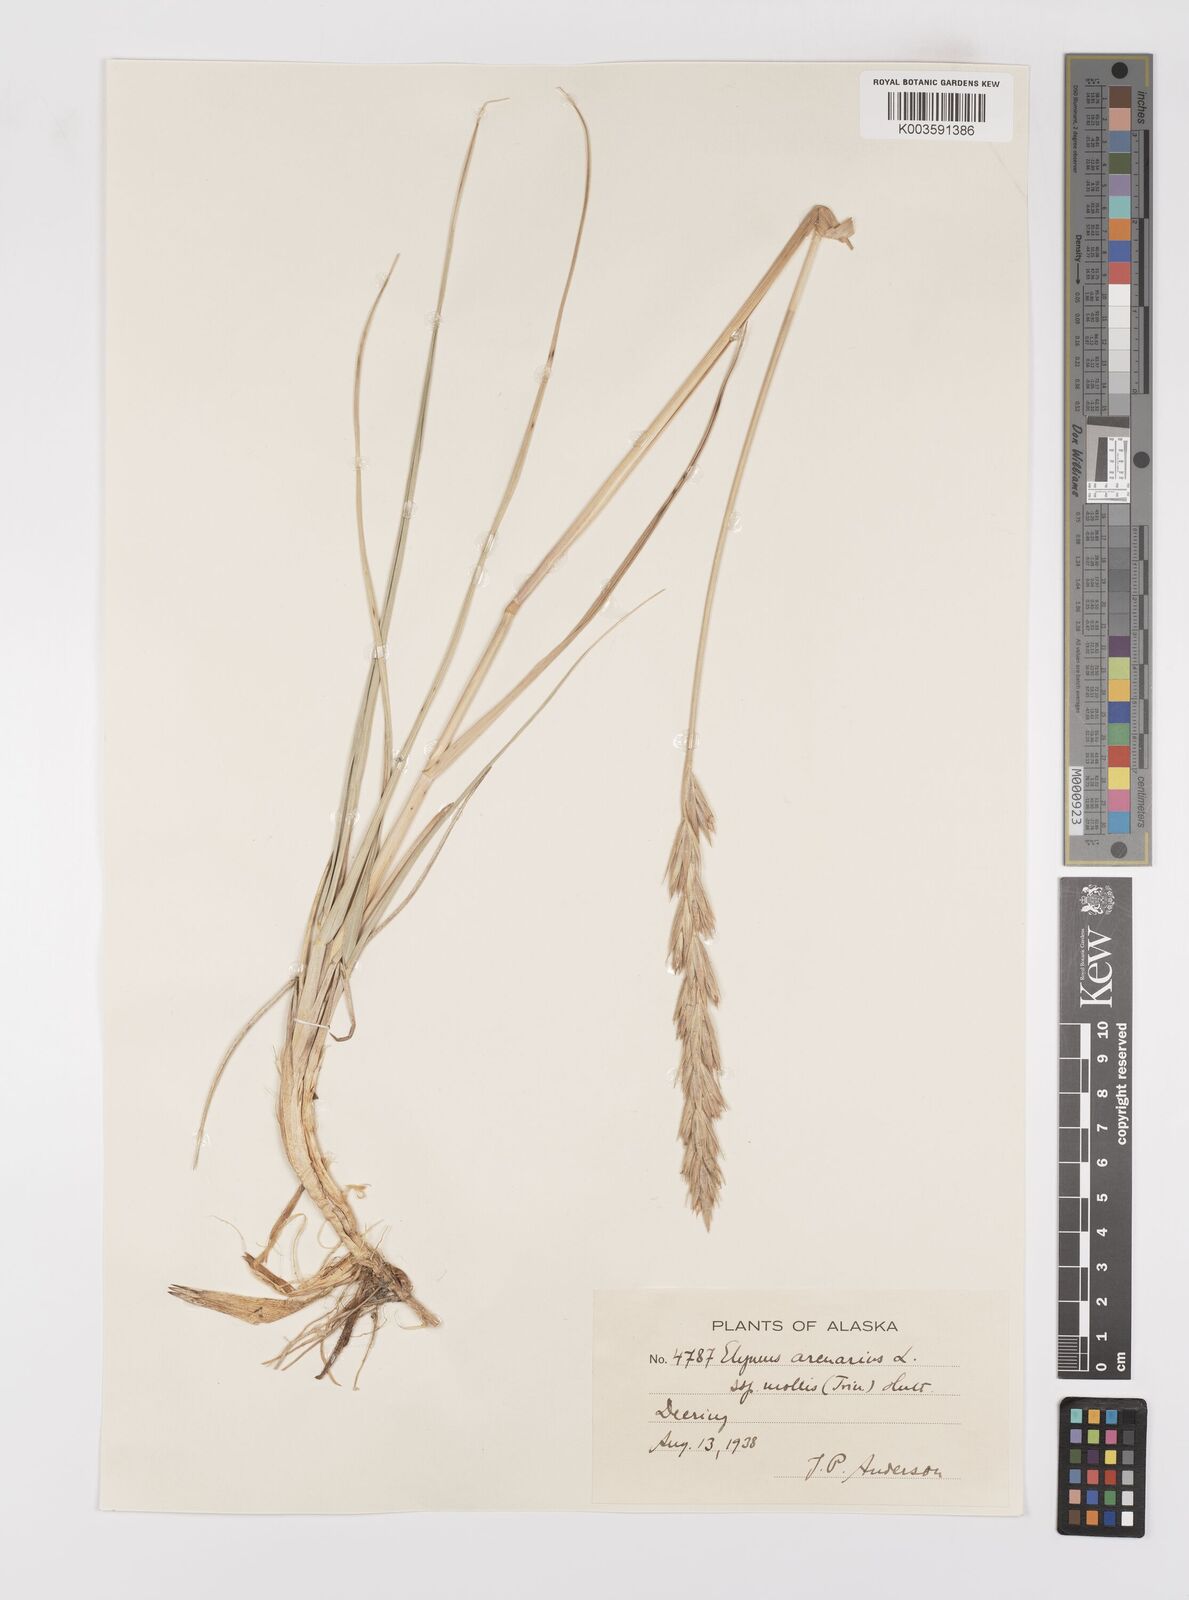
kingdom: Plantae
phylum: Tracheophyta
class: Liliopsida
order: Poales
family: Poaceae
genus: Leymus
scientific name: Leymus mollis
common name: American dune grass
